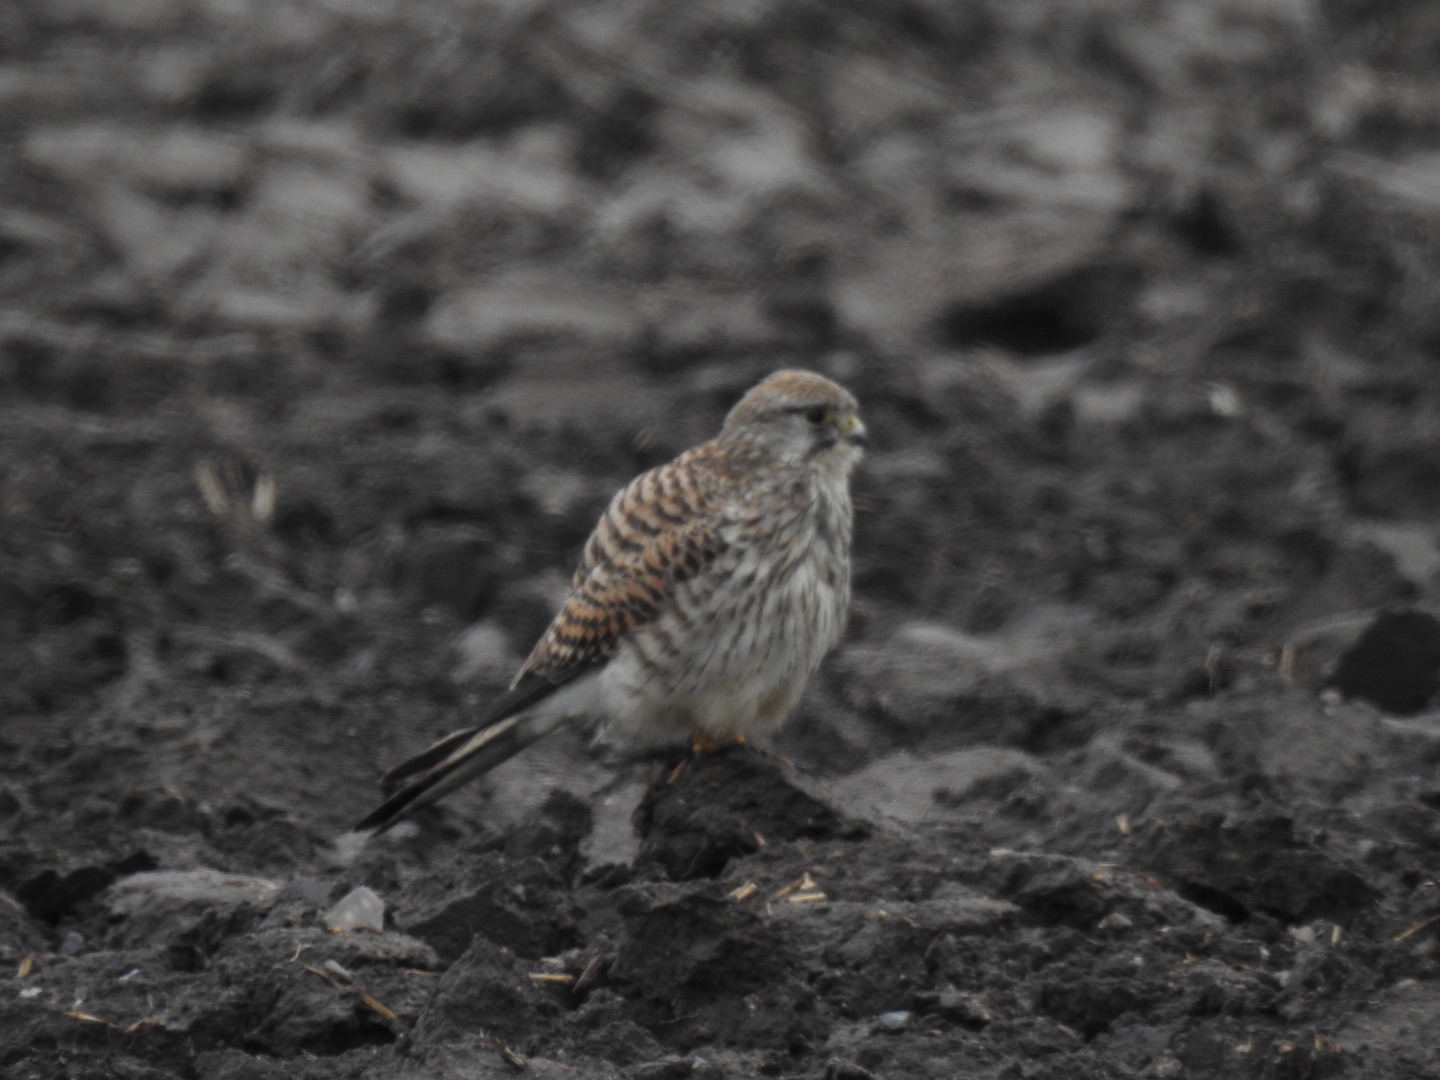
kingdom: Animalia
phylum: Chordata
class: Aves
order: Falconiformes
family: Falconidae
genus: Falco
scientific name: Falco tinnunculus
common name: Tårnfalk
